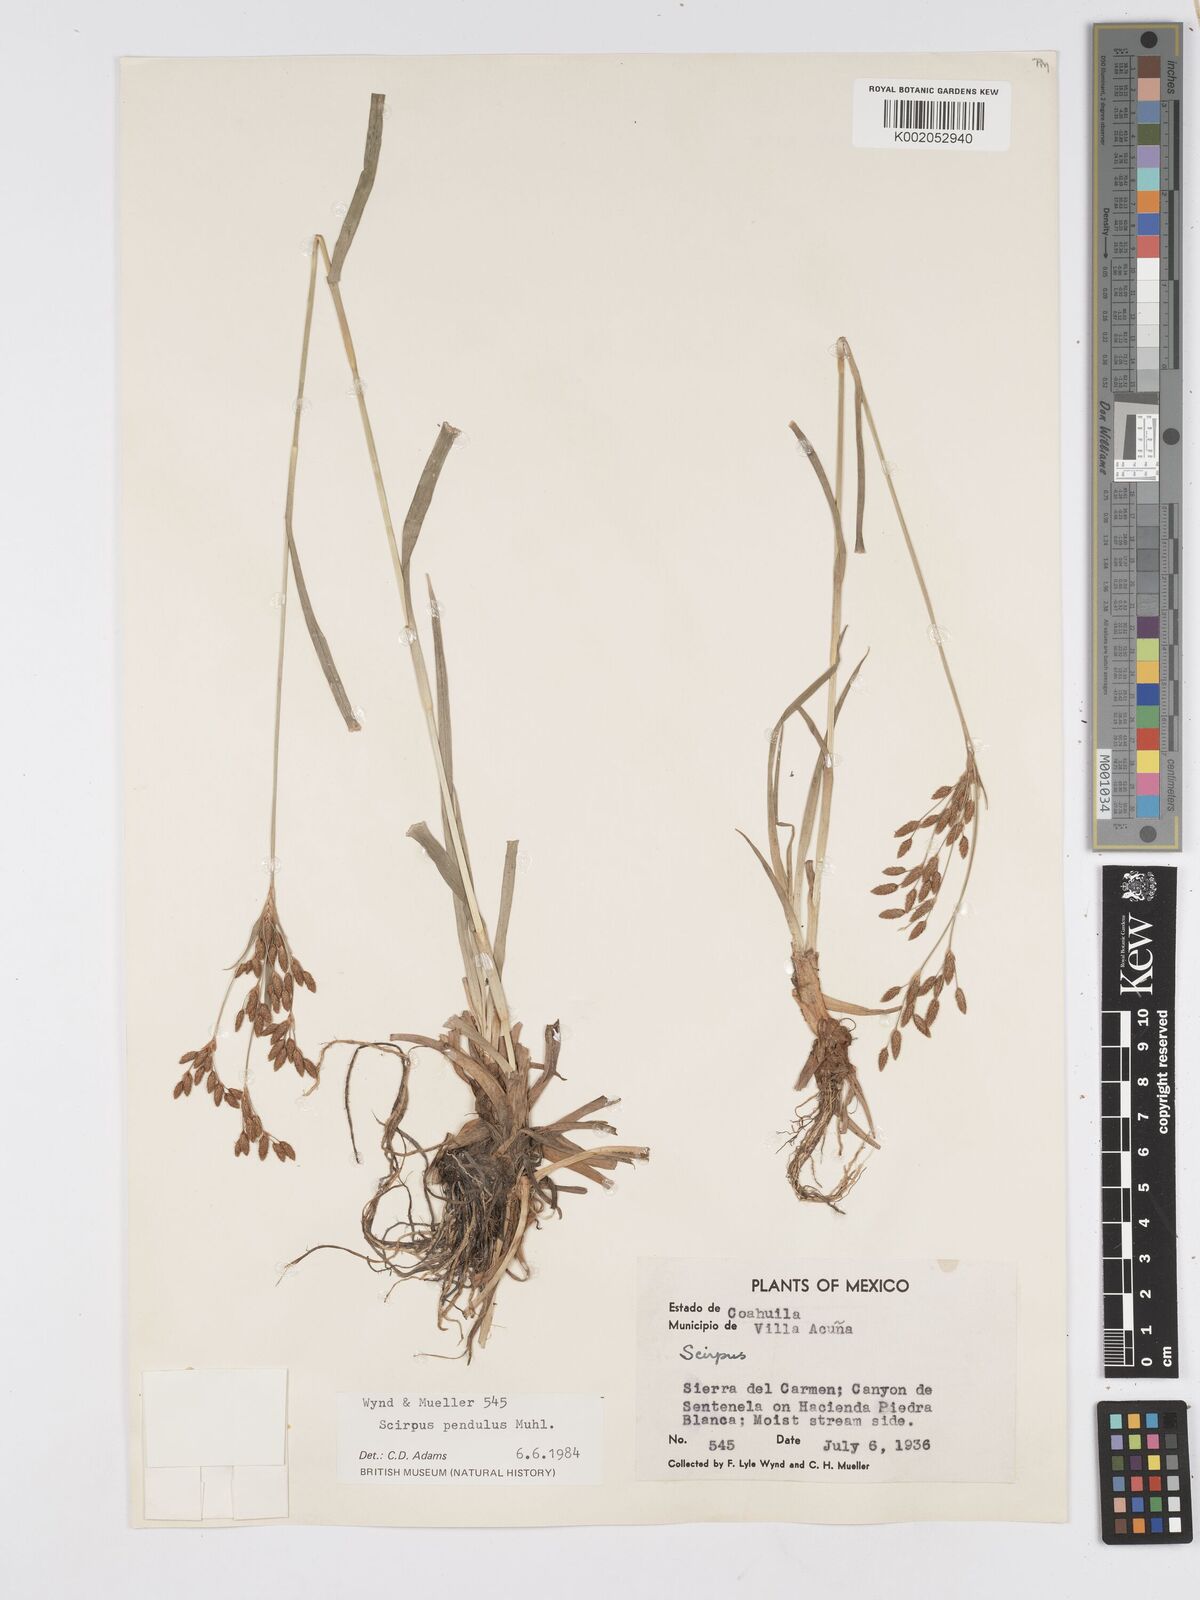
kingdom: Plantae
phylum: Tracheophyta
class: Liliopsida
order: Poales
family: Cyperaceae
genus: Scirpus
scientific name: Scirpus lineatus
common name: Drooping bulrush
